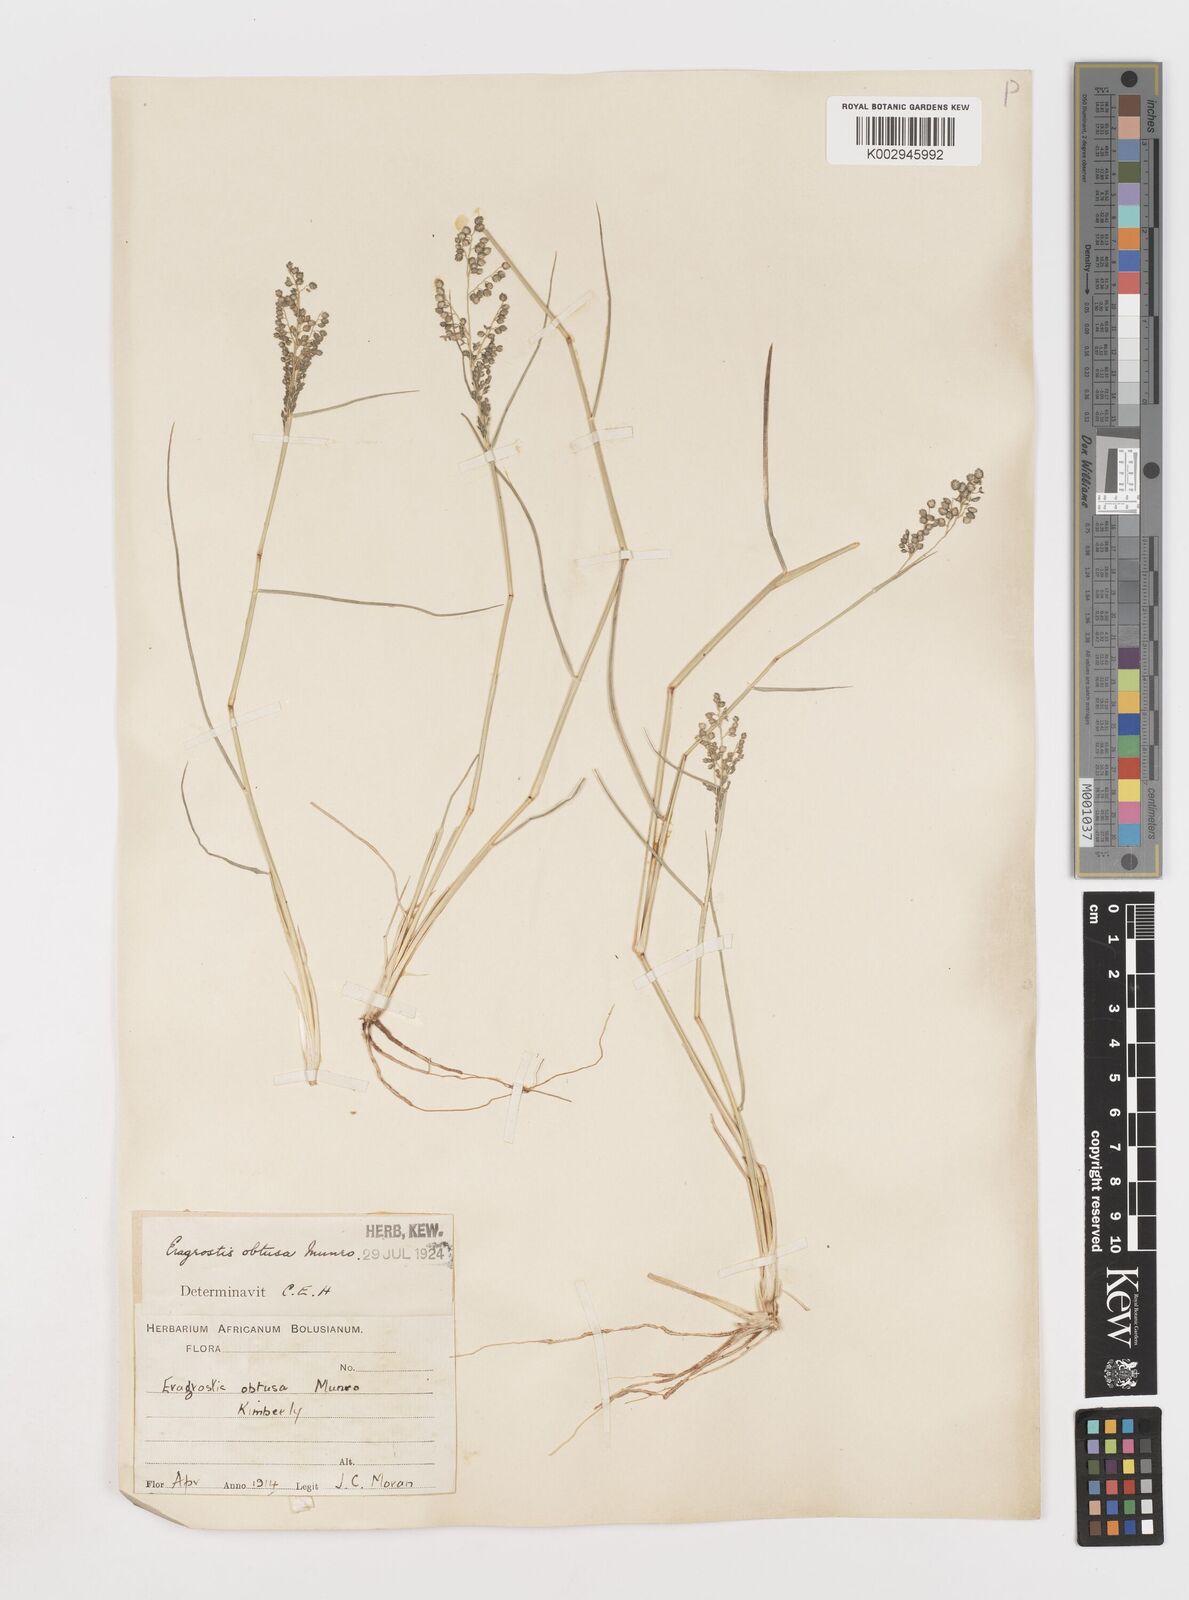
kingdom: Plantae
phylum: Tracheophyta
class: Liliopsida
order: Poales
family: Poaceae
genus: Eragrostis
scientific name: Eragrostis obtusa
